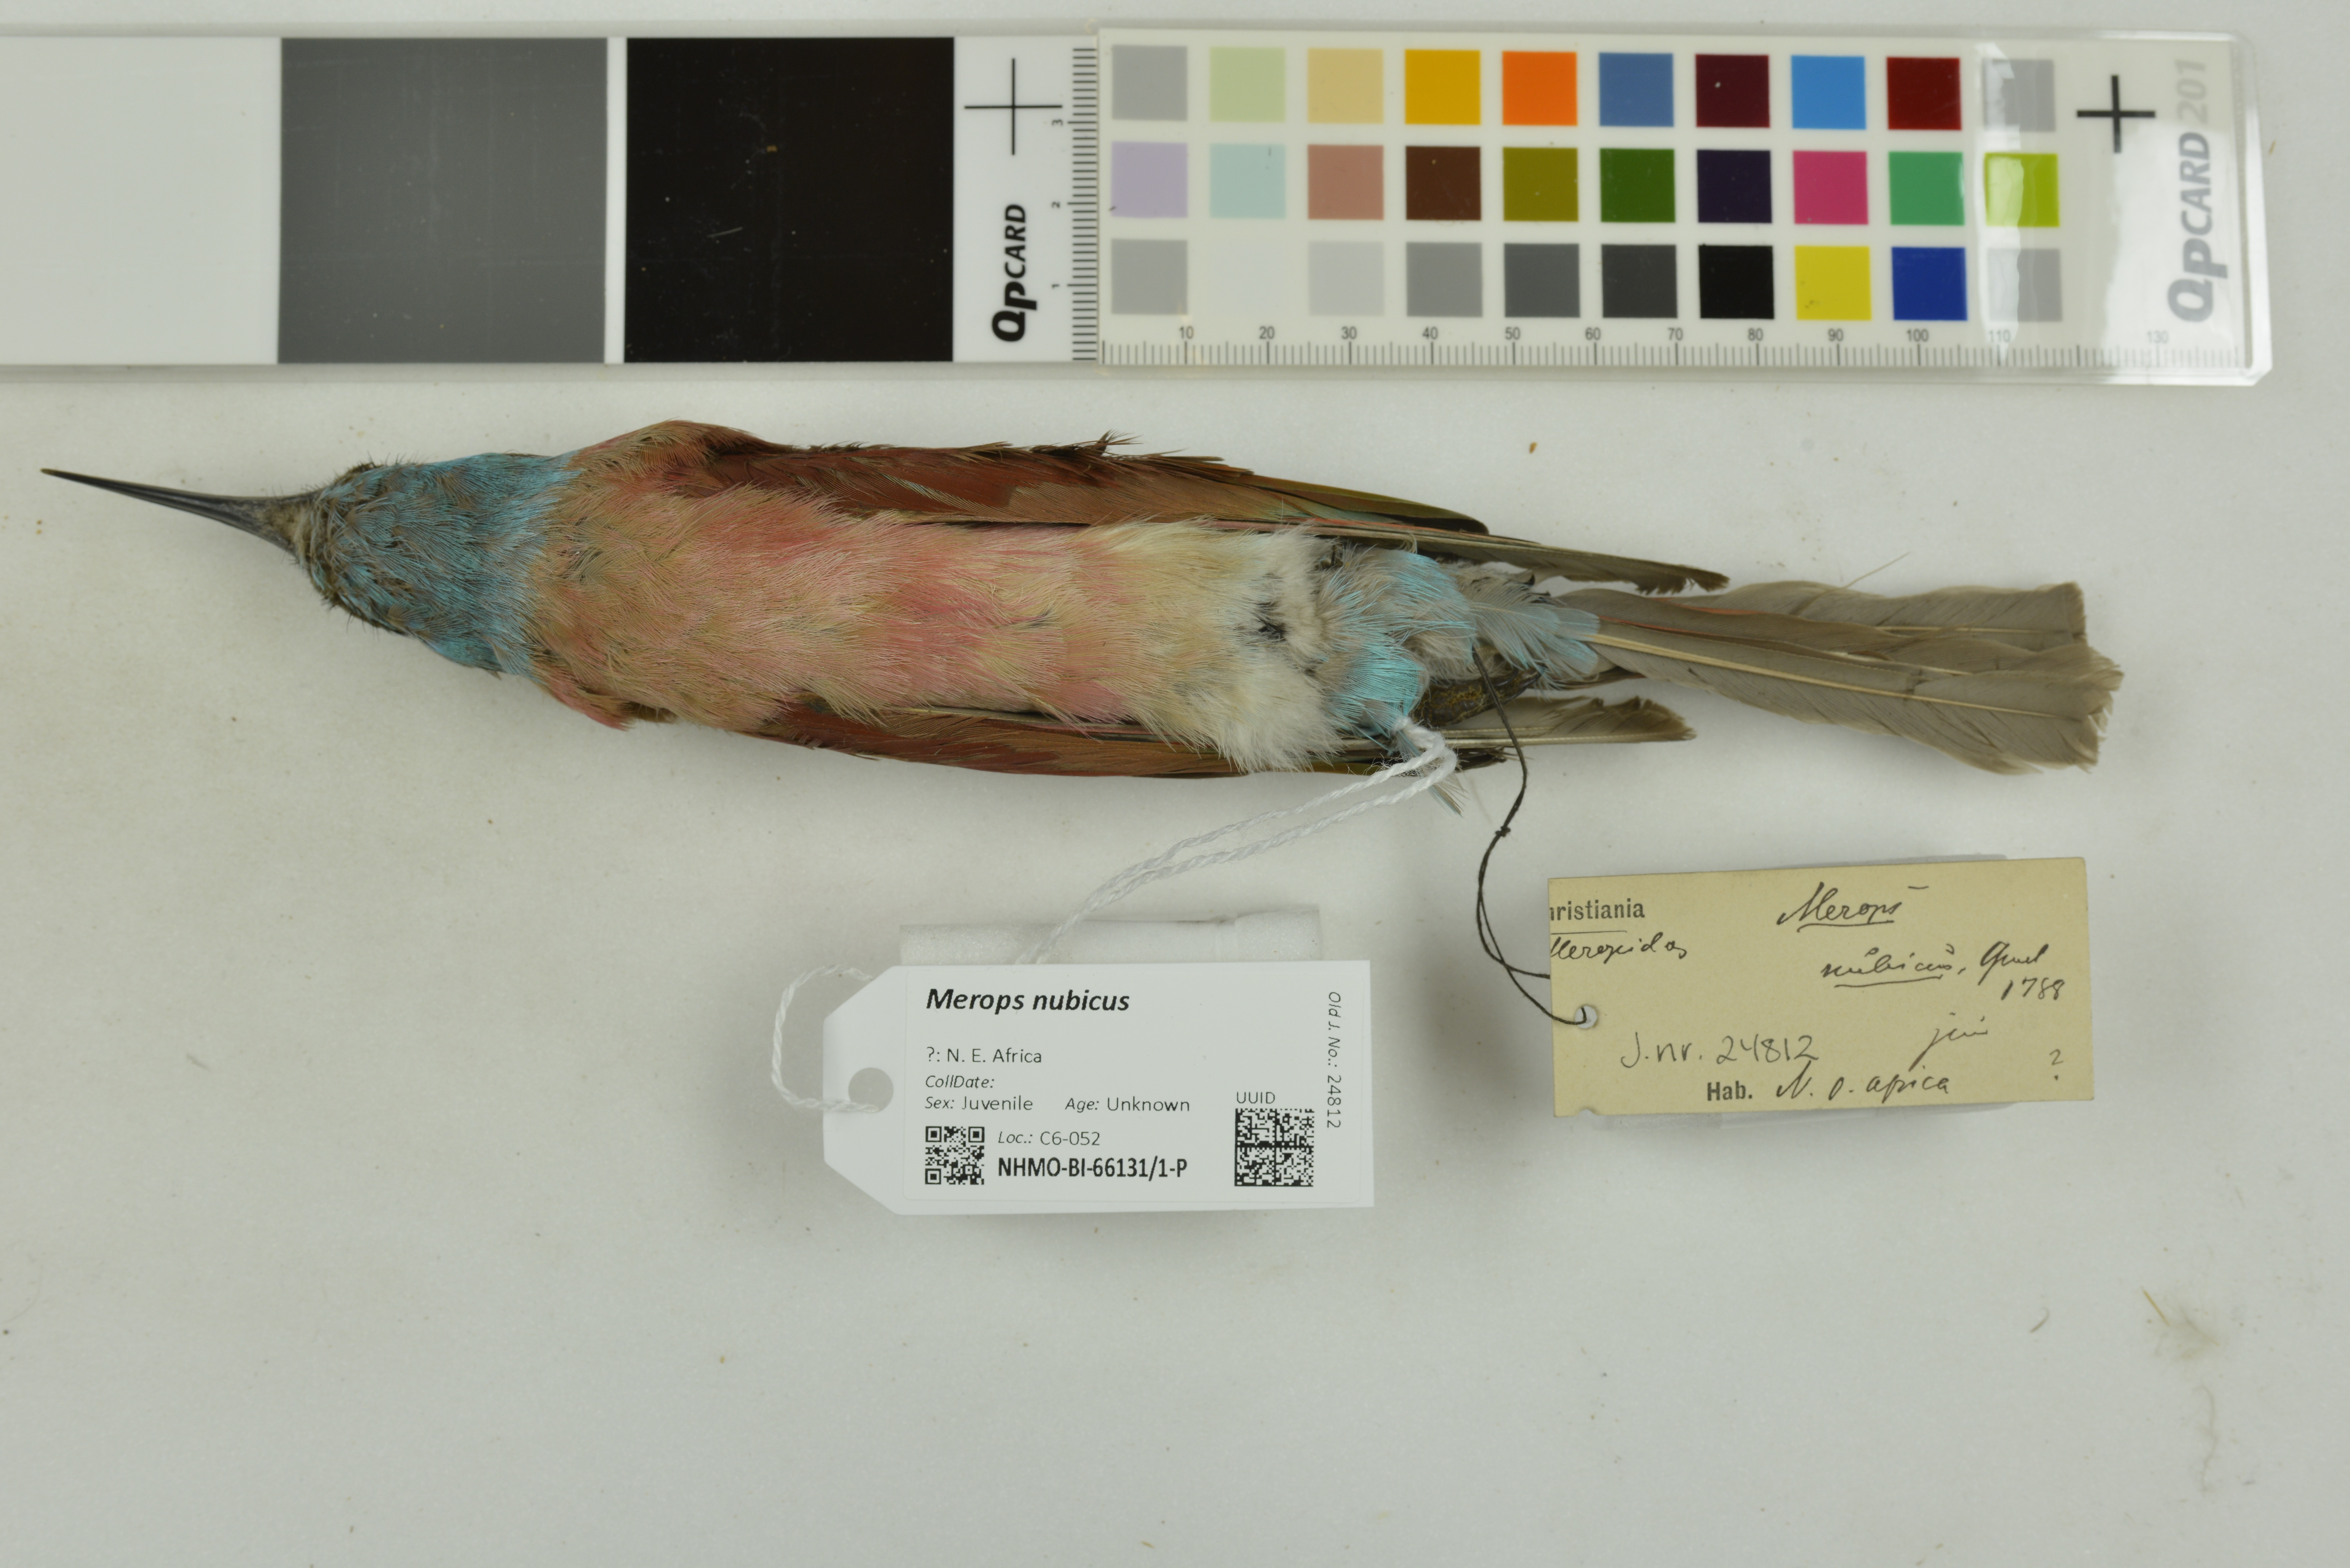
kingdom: Animalia
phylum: Chordata
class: Aves
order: Coraciiformes
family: Meropidae
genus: Merops
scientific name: Merops nubicus
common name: Northern carmine bee-eater
